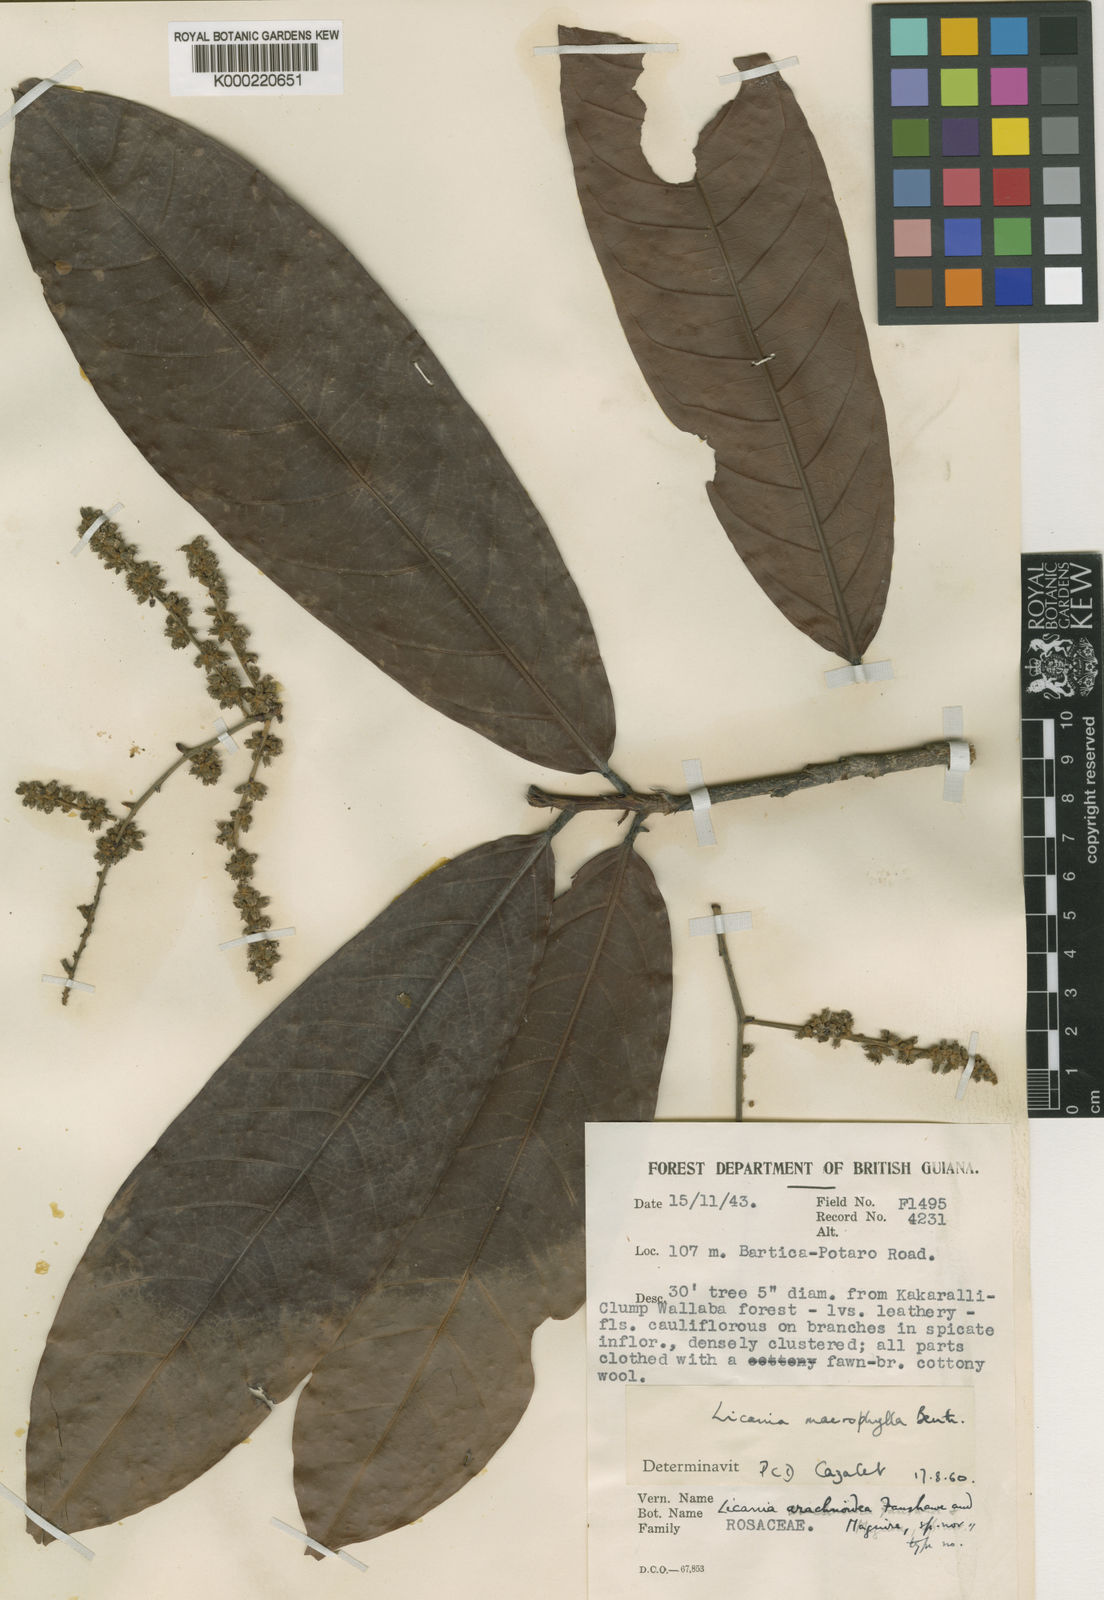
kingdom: Plantae
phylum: Tracheophyta
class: Magnoliopsida
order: Malpighiales
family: Chrysobalanaceae
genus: Hymenopus
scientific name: Hymenopus arachnoideus
